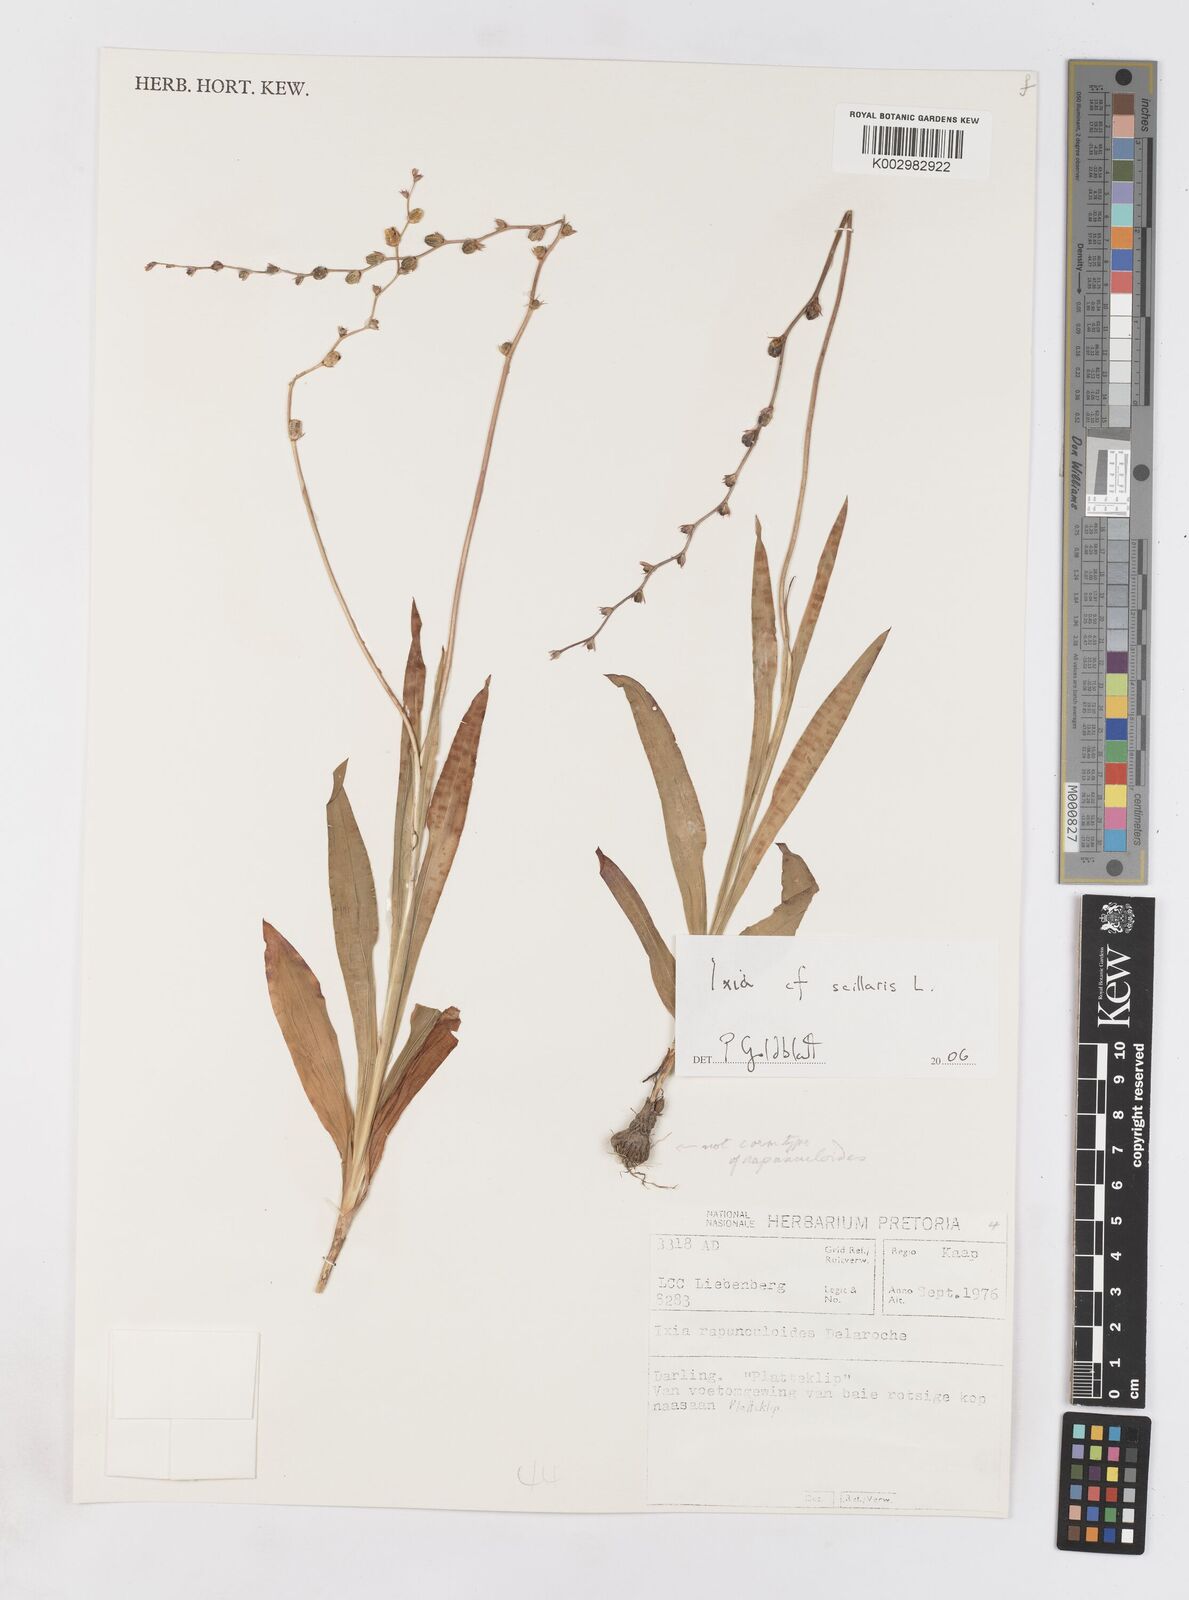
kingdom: Plantae
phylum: Tracheophyta
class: Liliopsida
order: Asparagales
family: Iridaceae
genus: Ixia
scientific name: Ixia scillaris
